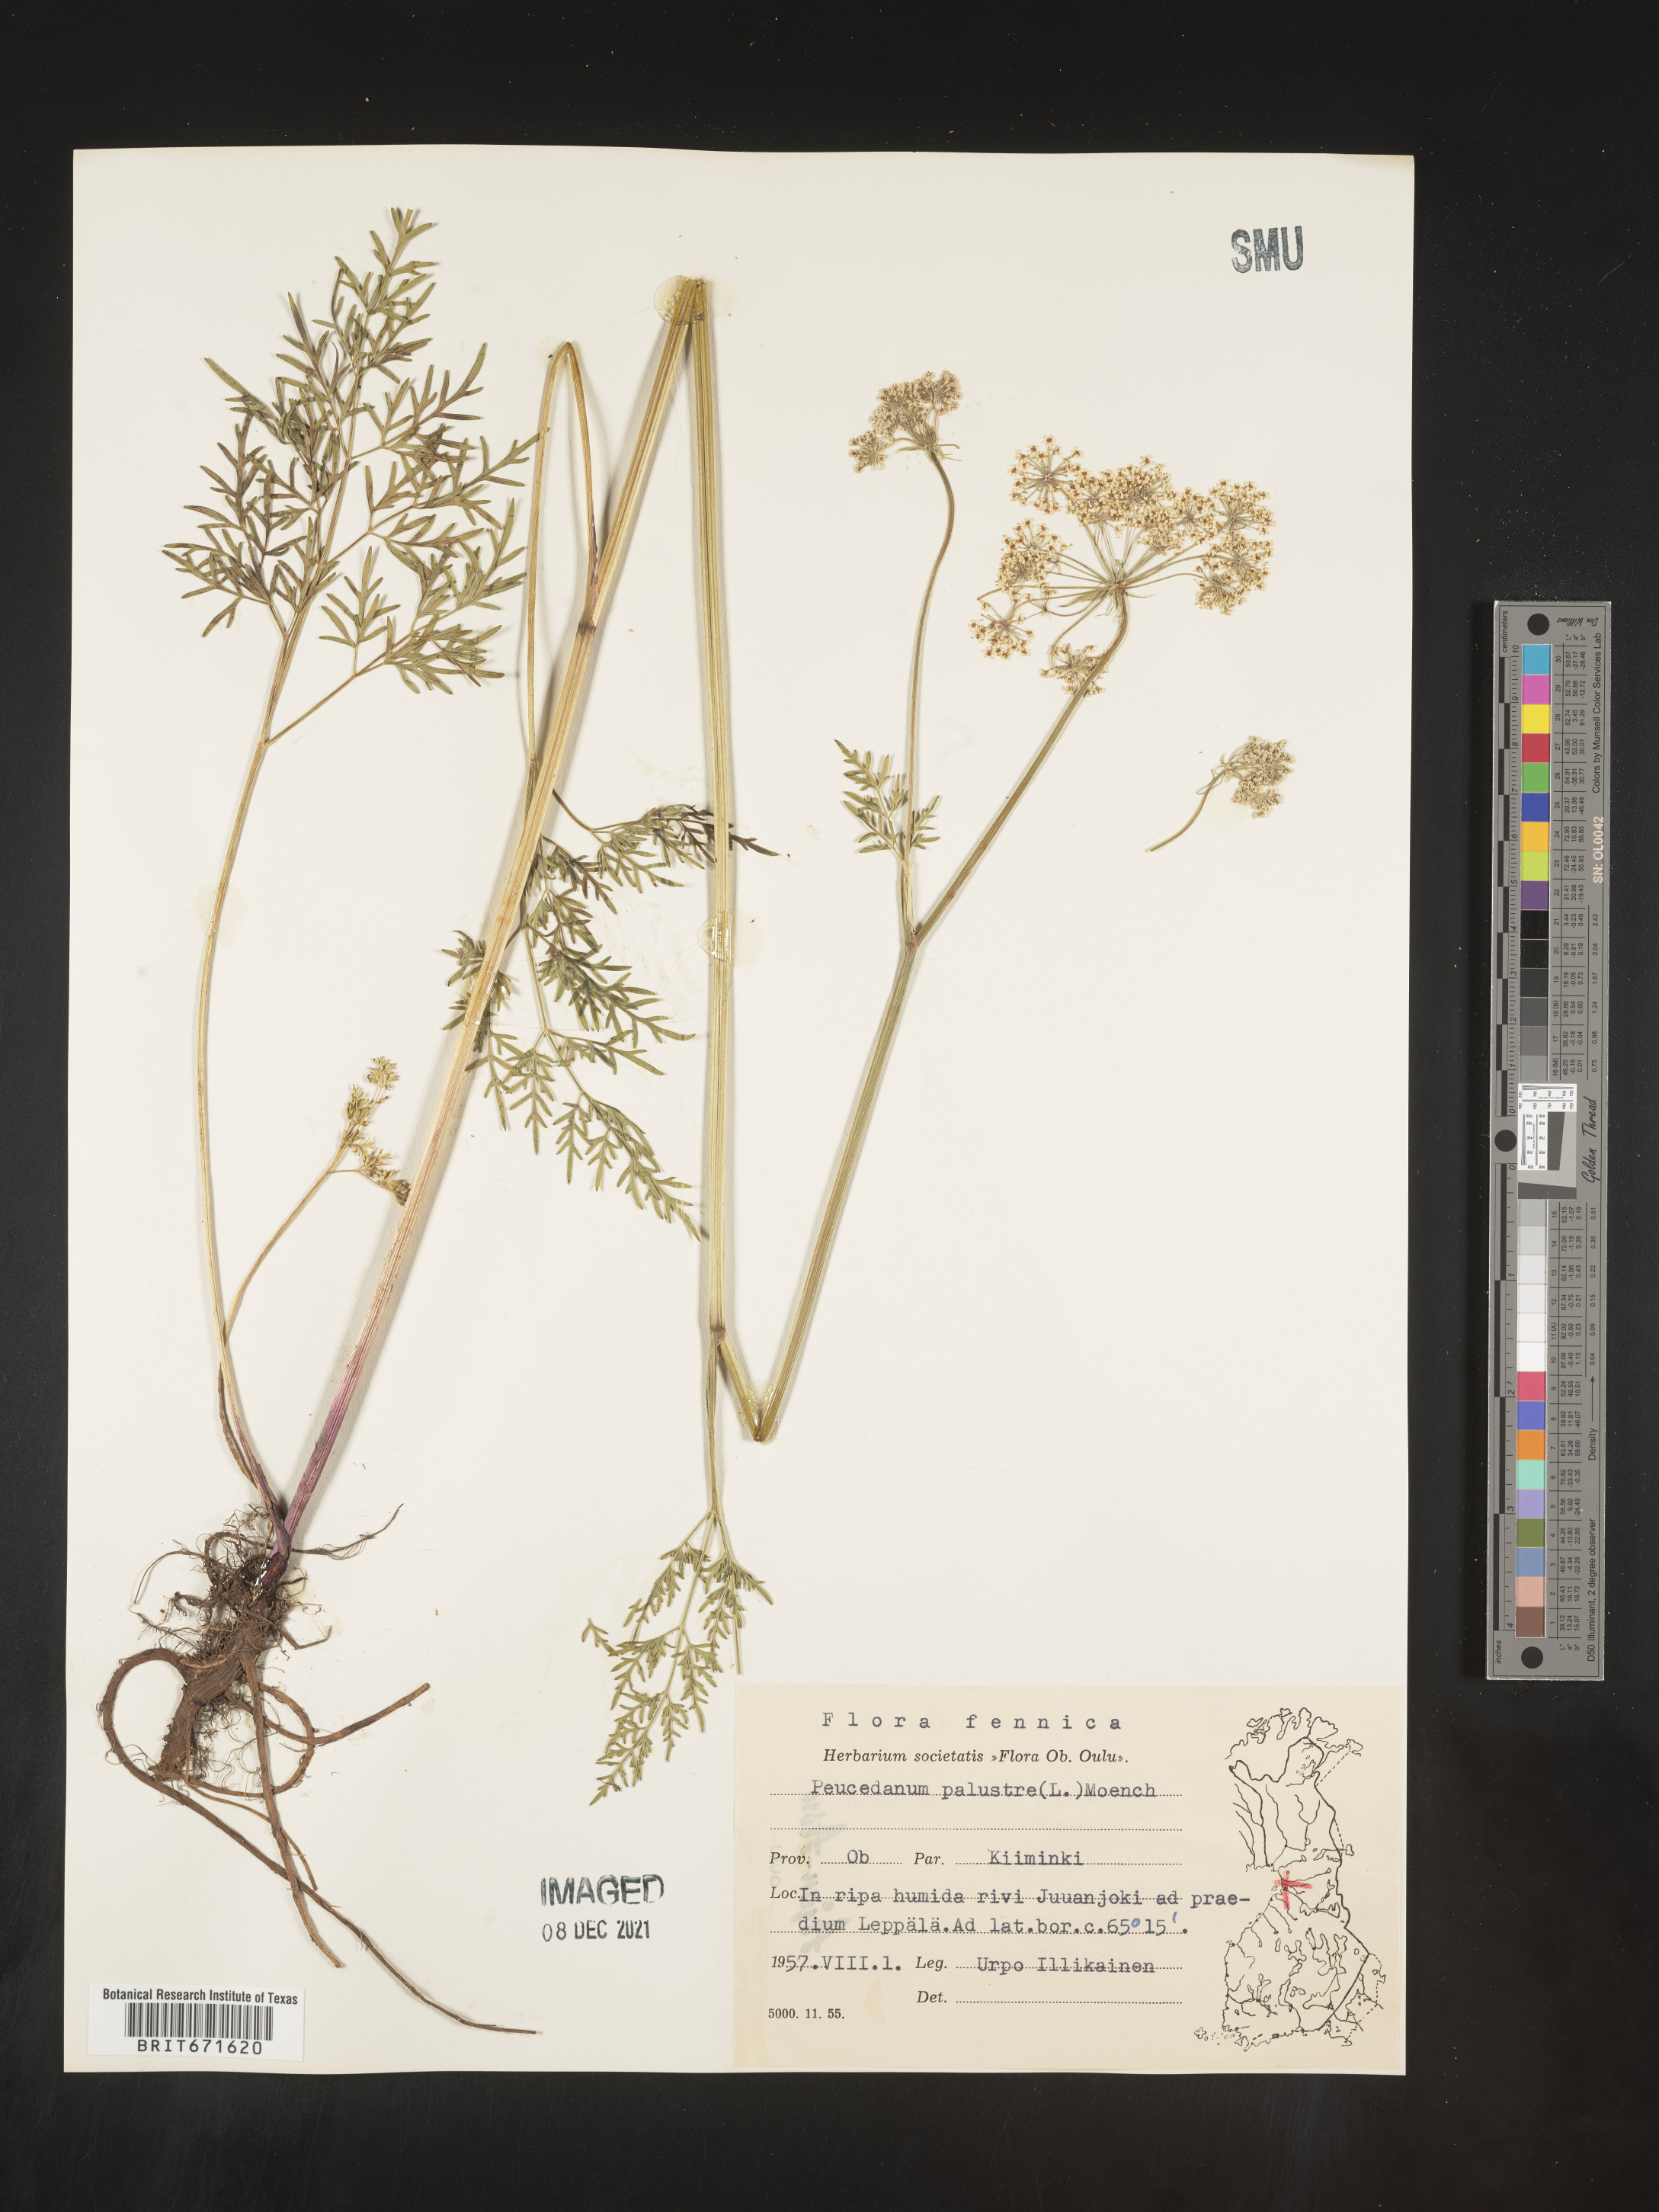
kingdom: Plantae
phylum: Tracheophyta
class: Magnoliopsida
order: Apiales
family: Apiaceae
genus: Peucedanum
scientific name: Peucedanum
